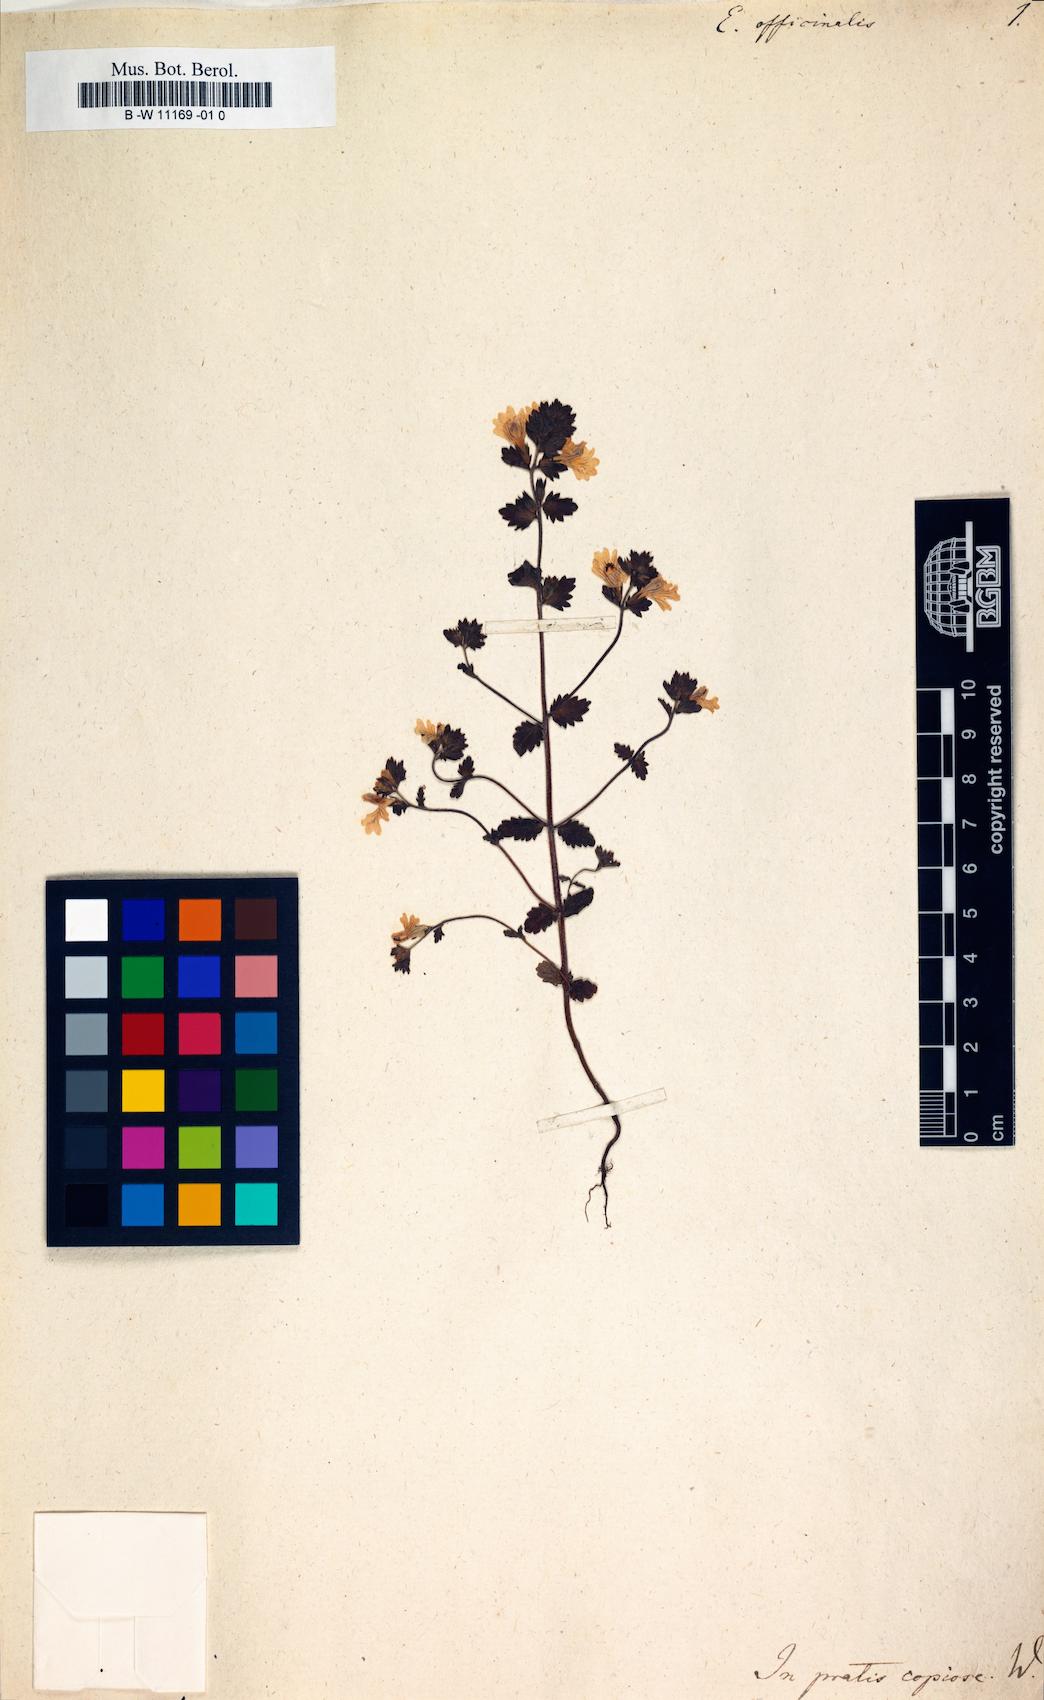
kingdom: Plantae
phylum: Tracheophyta
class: Magnoliopsida
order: Lamiales
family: Orobanchaceae
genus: Euphrasia
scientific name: Euphrasia officinalis
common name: Eyebright
